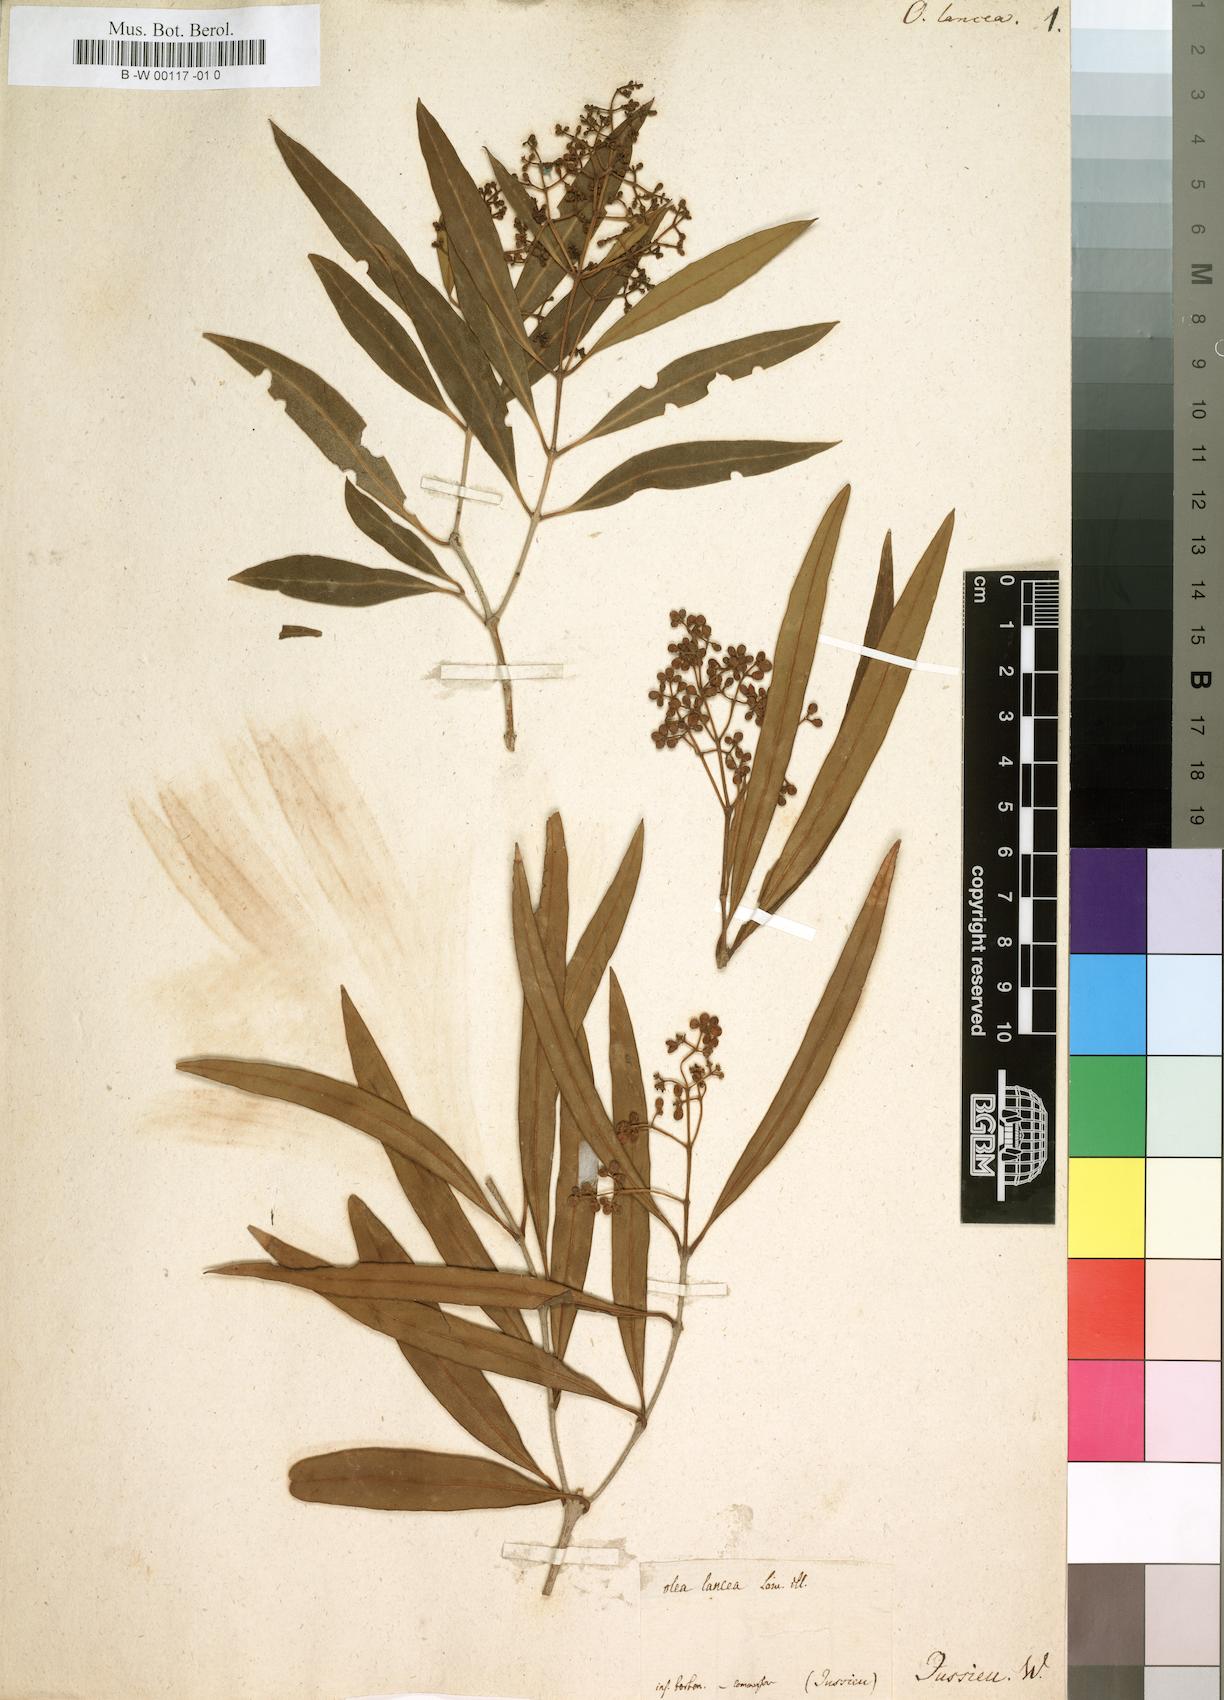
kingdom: Plantae
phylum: Tracheophyta
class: Magnoliopsida
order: Lamiales
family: Oleaceae
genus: Olea
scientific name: Olea lancea
